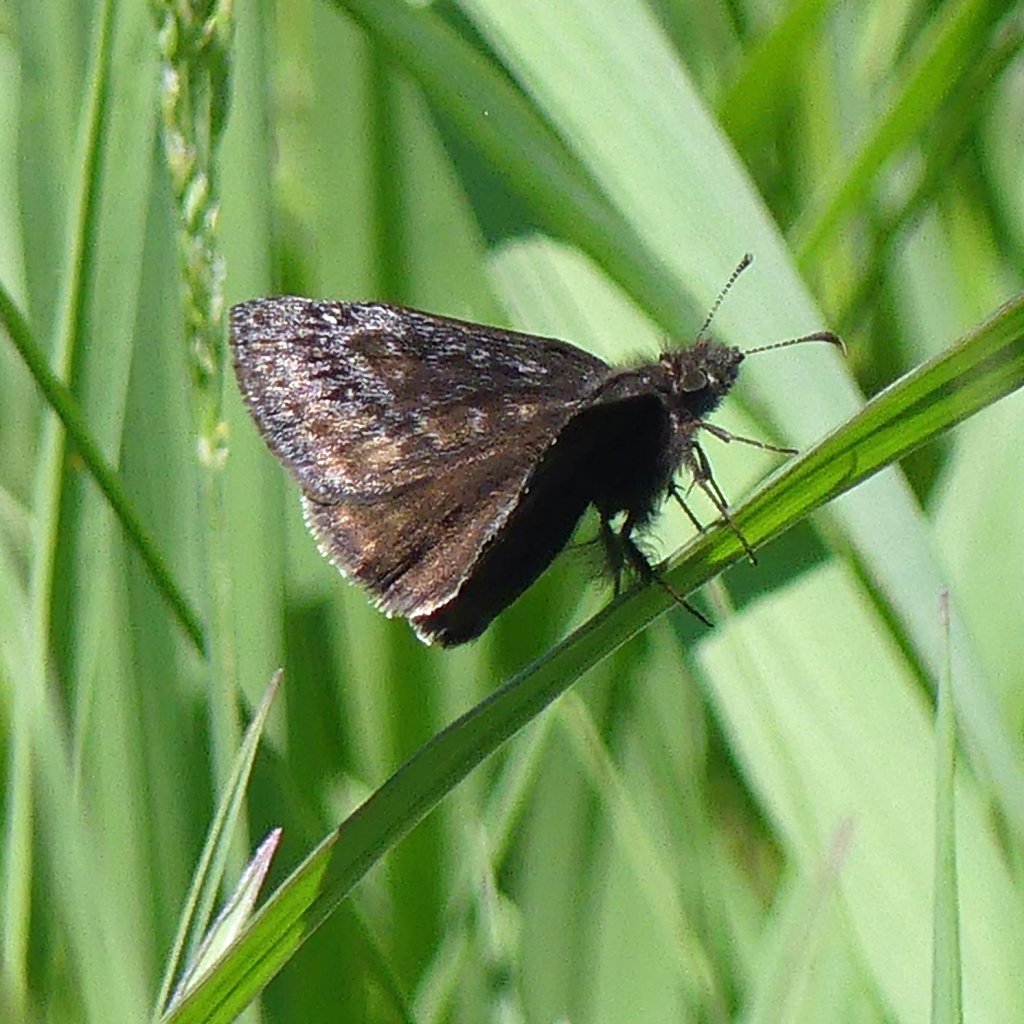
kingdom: Animalia
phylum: Arthropoda
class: Insecta
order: Lepidoptera
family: Hesperiidae
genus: Gesta
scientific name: Gesta
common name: Wild Indigo Duskywing
